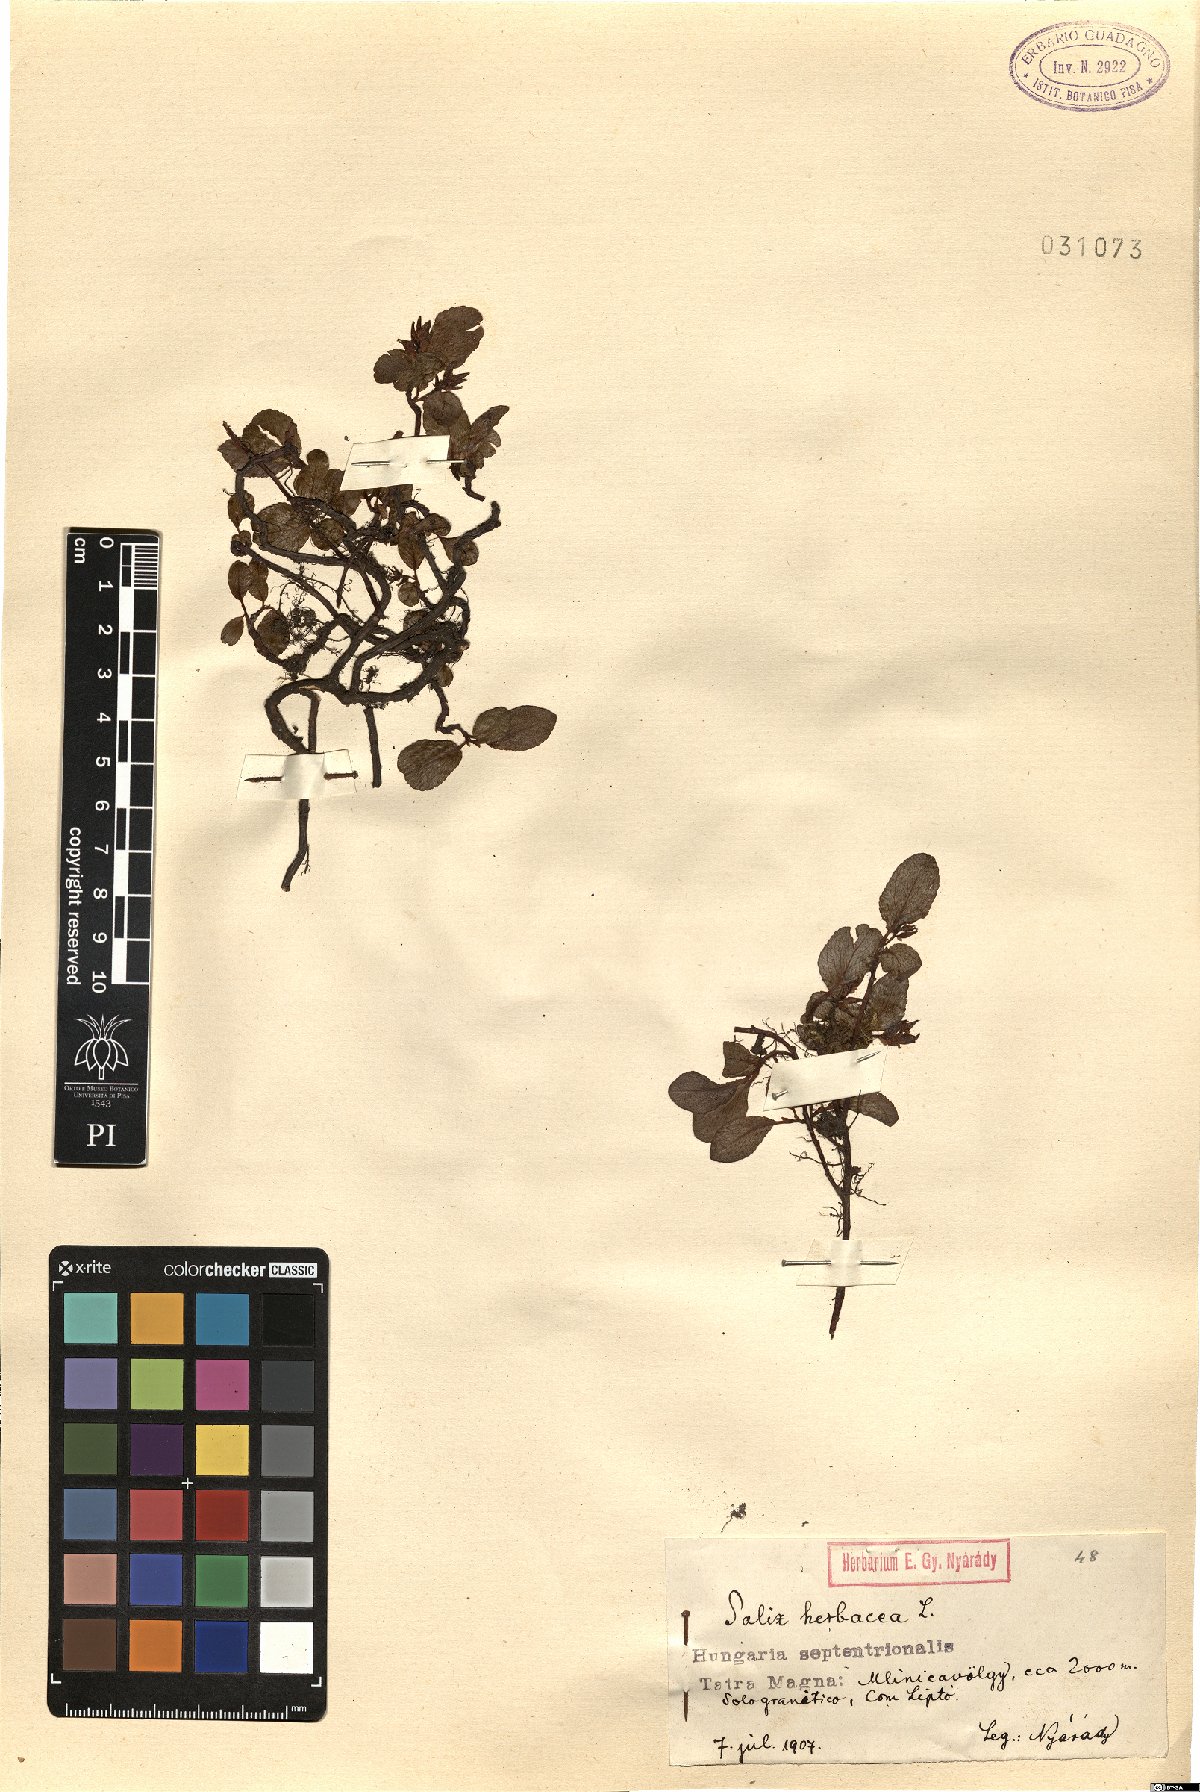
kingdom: Plantae
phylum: Tracheophyta
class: Magnoliopsida
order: Malpighiales
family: Salicaceae
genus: Salix
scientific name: Salix herbacea
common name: Dwarf willow
